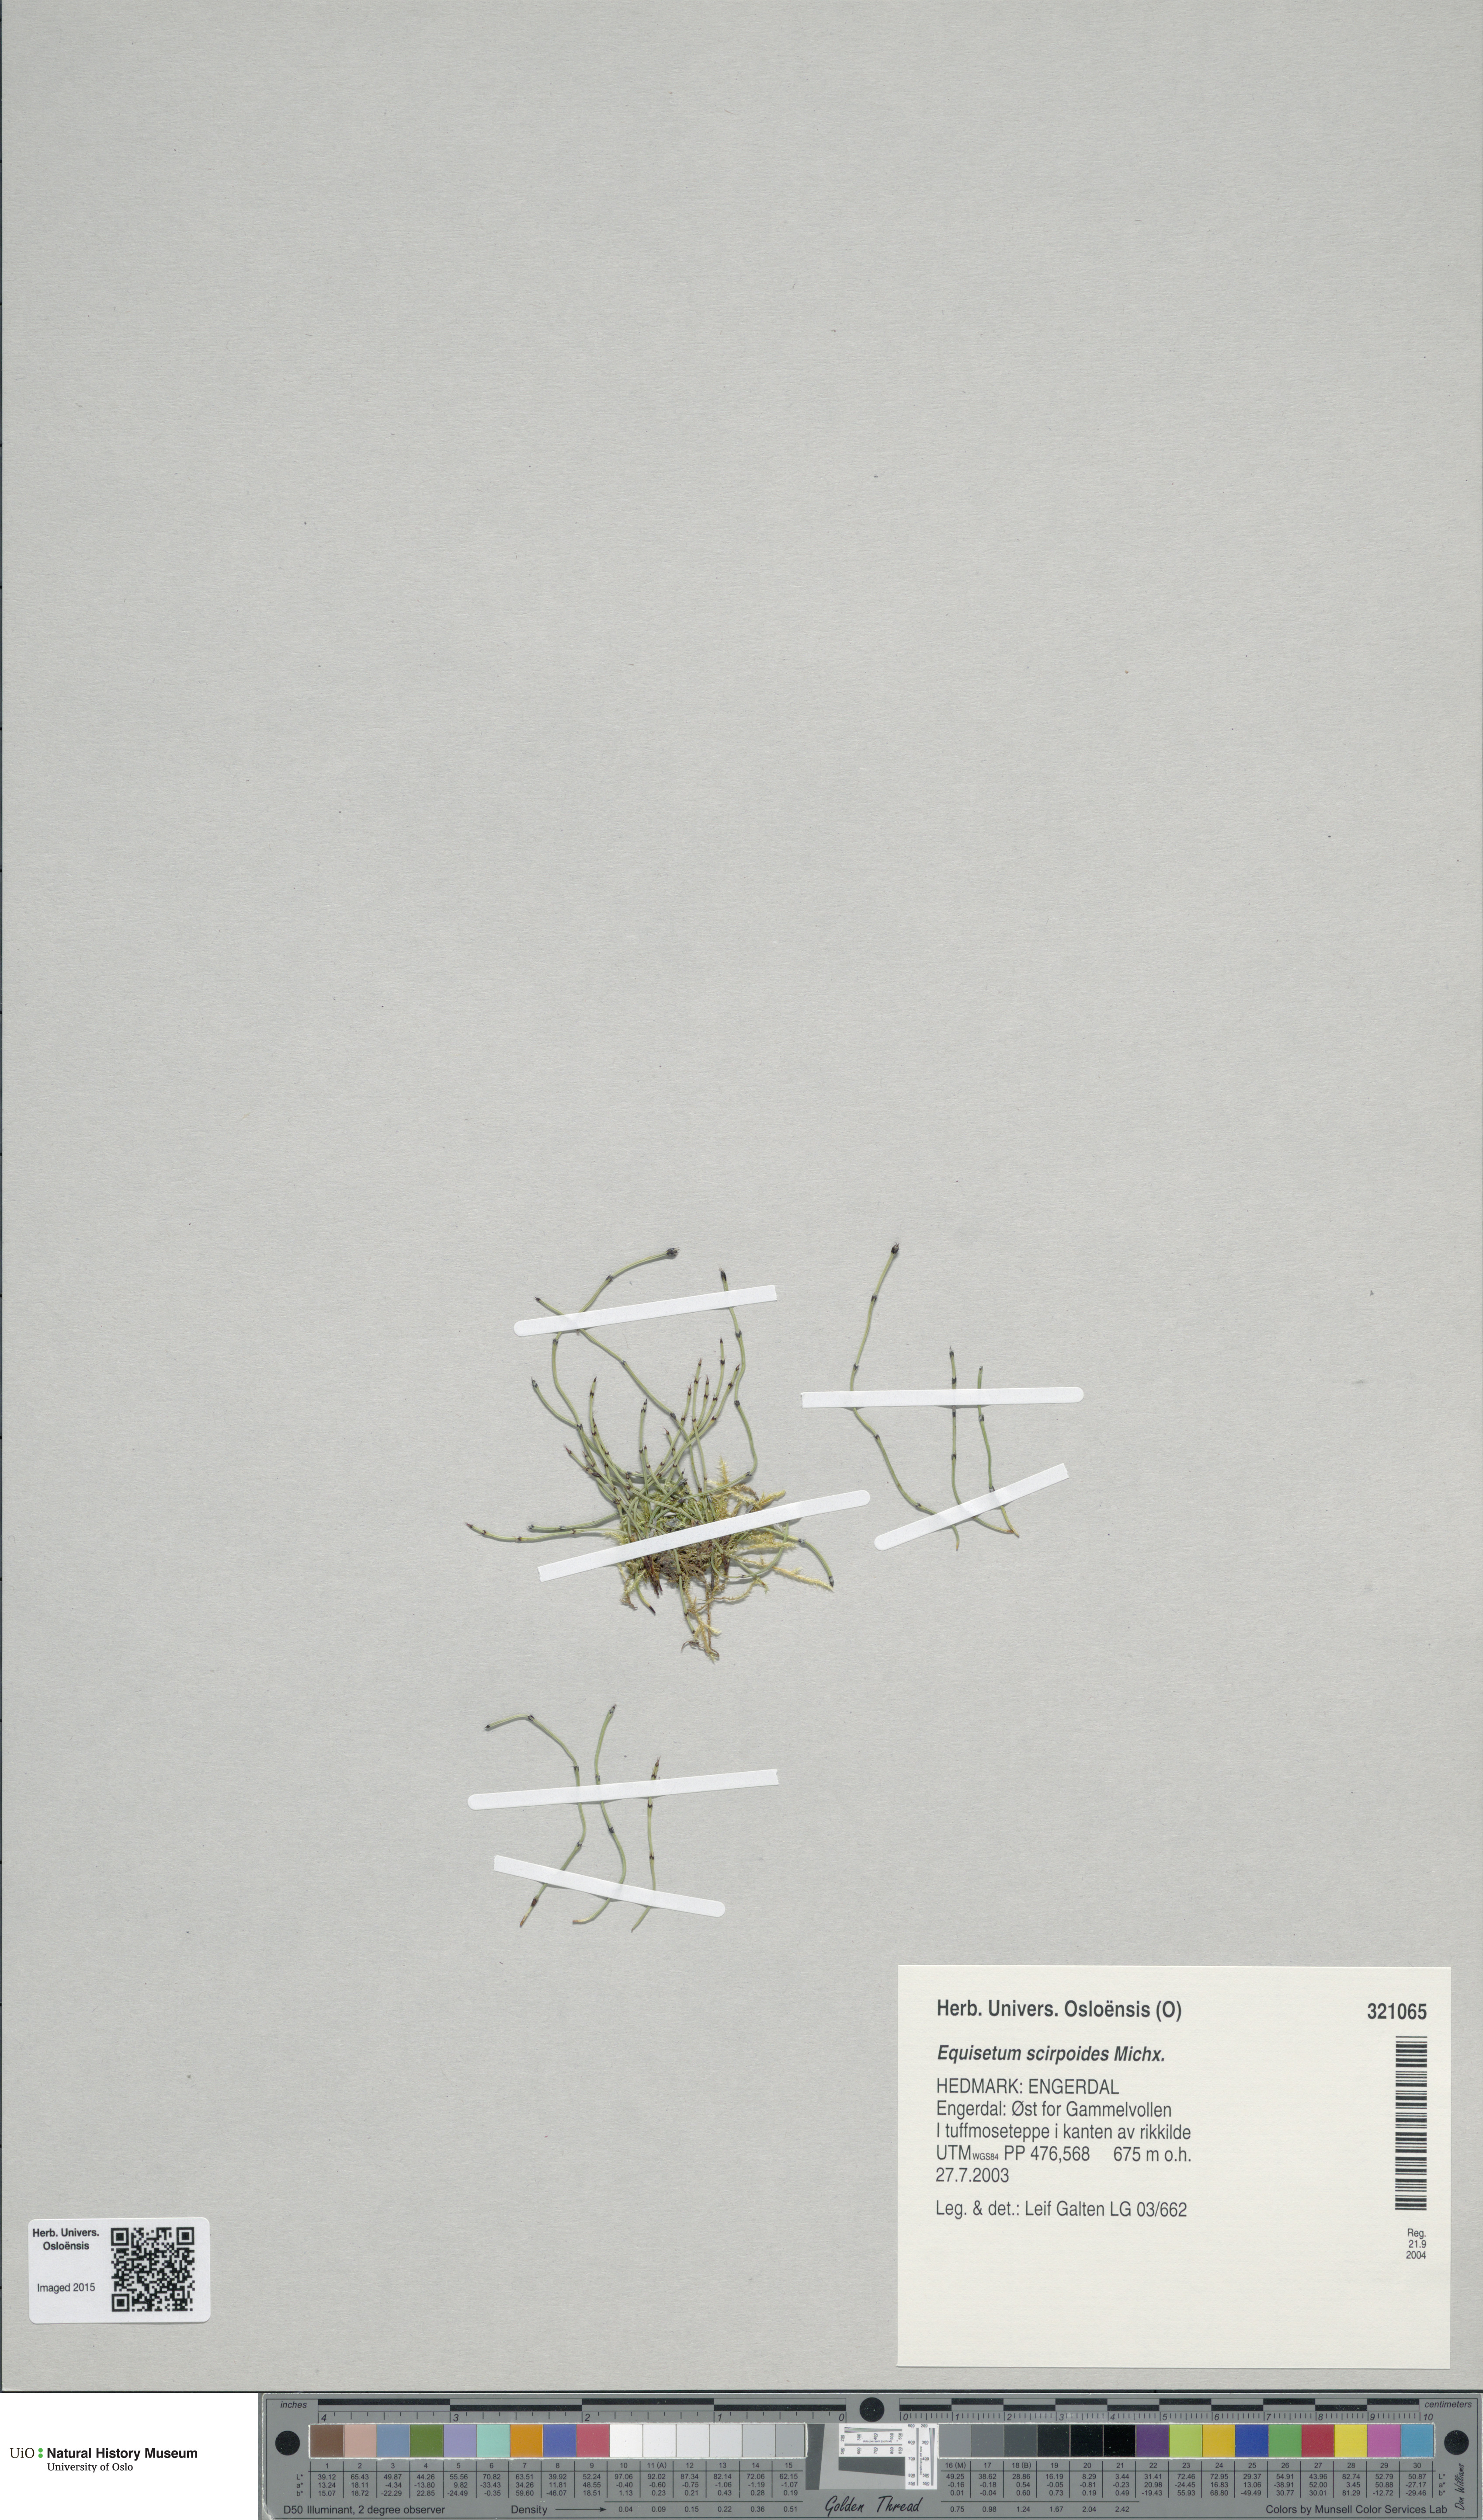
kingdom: Plantae
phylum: Tracheophyta
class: Polypodiopsida
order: Equisetales
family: Equisetaceae
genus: Equisetum
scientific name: Equisetum scirpoides
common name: Delicate horsetail
